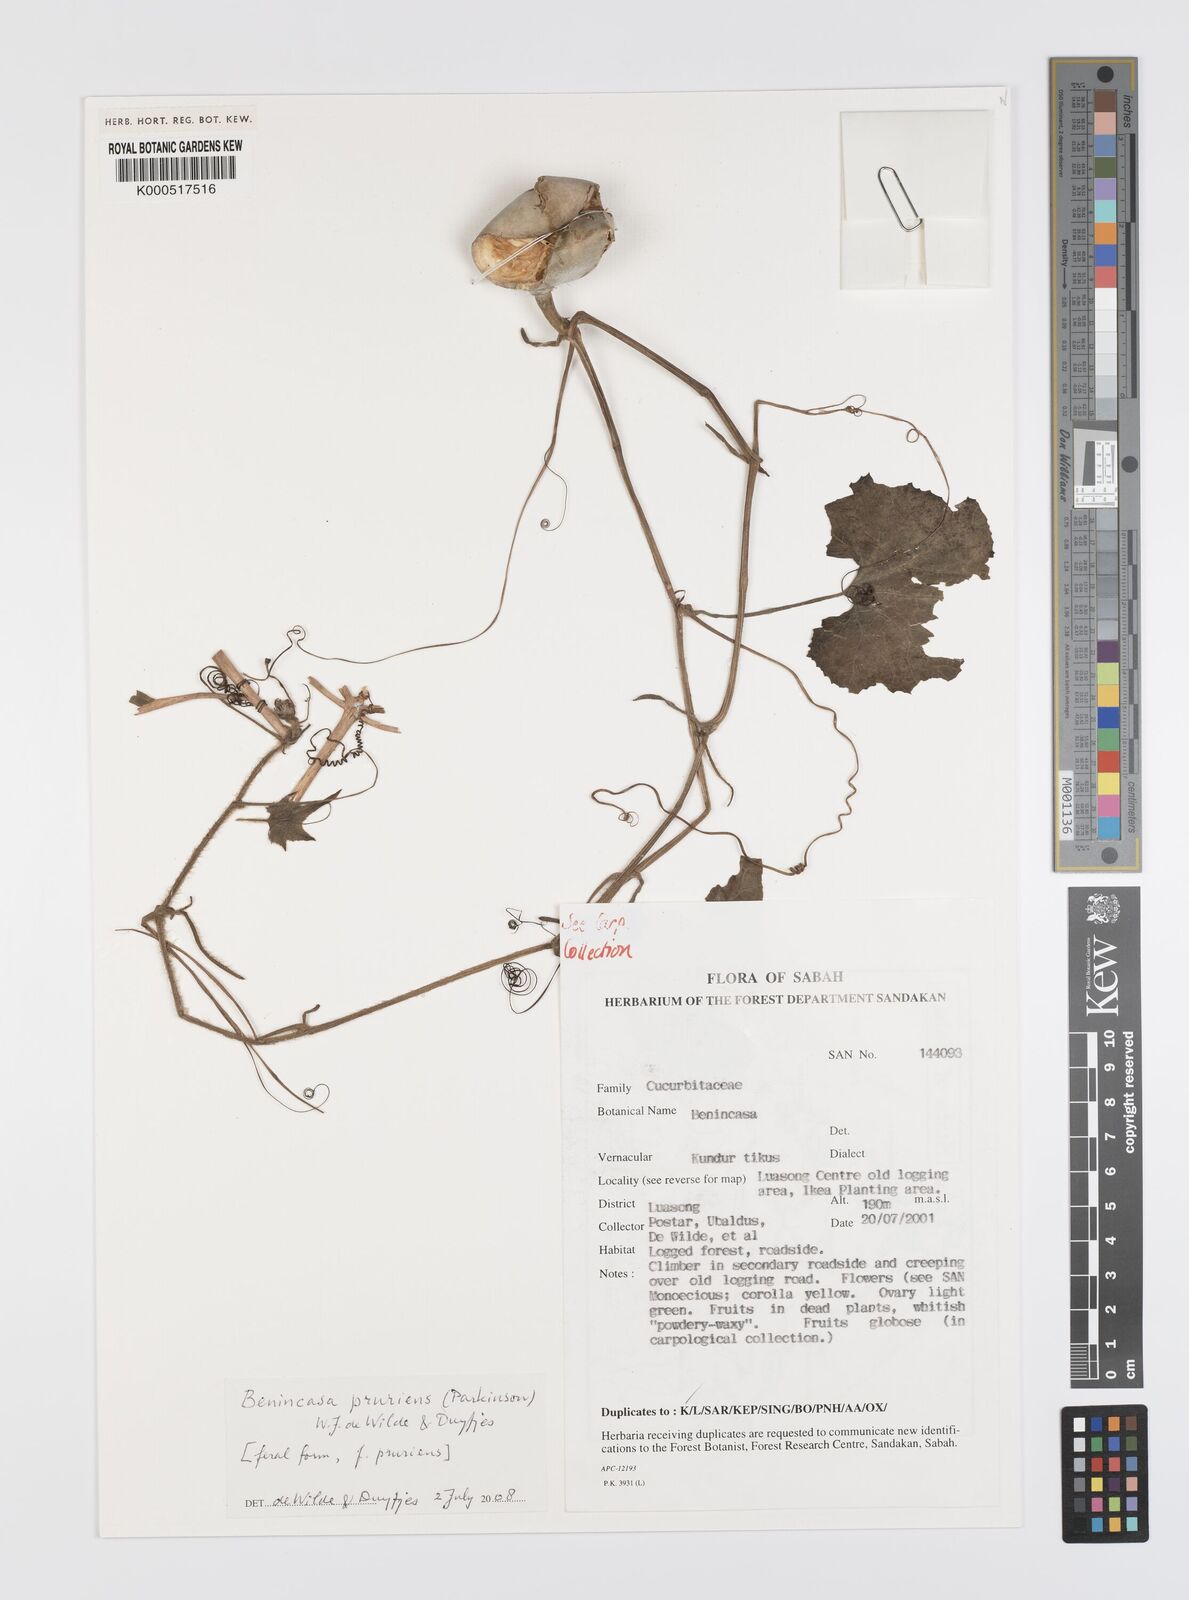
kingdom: Plantae
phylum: Tracheophyta
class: Magnoliopsida
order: Cucurbitales
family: Cucurbitaceae
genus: Benincasa
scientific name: Benincasa pruriens
